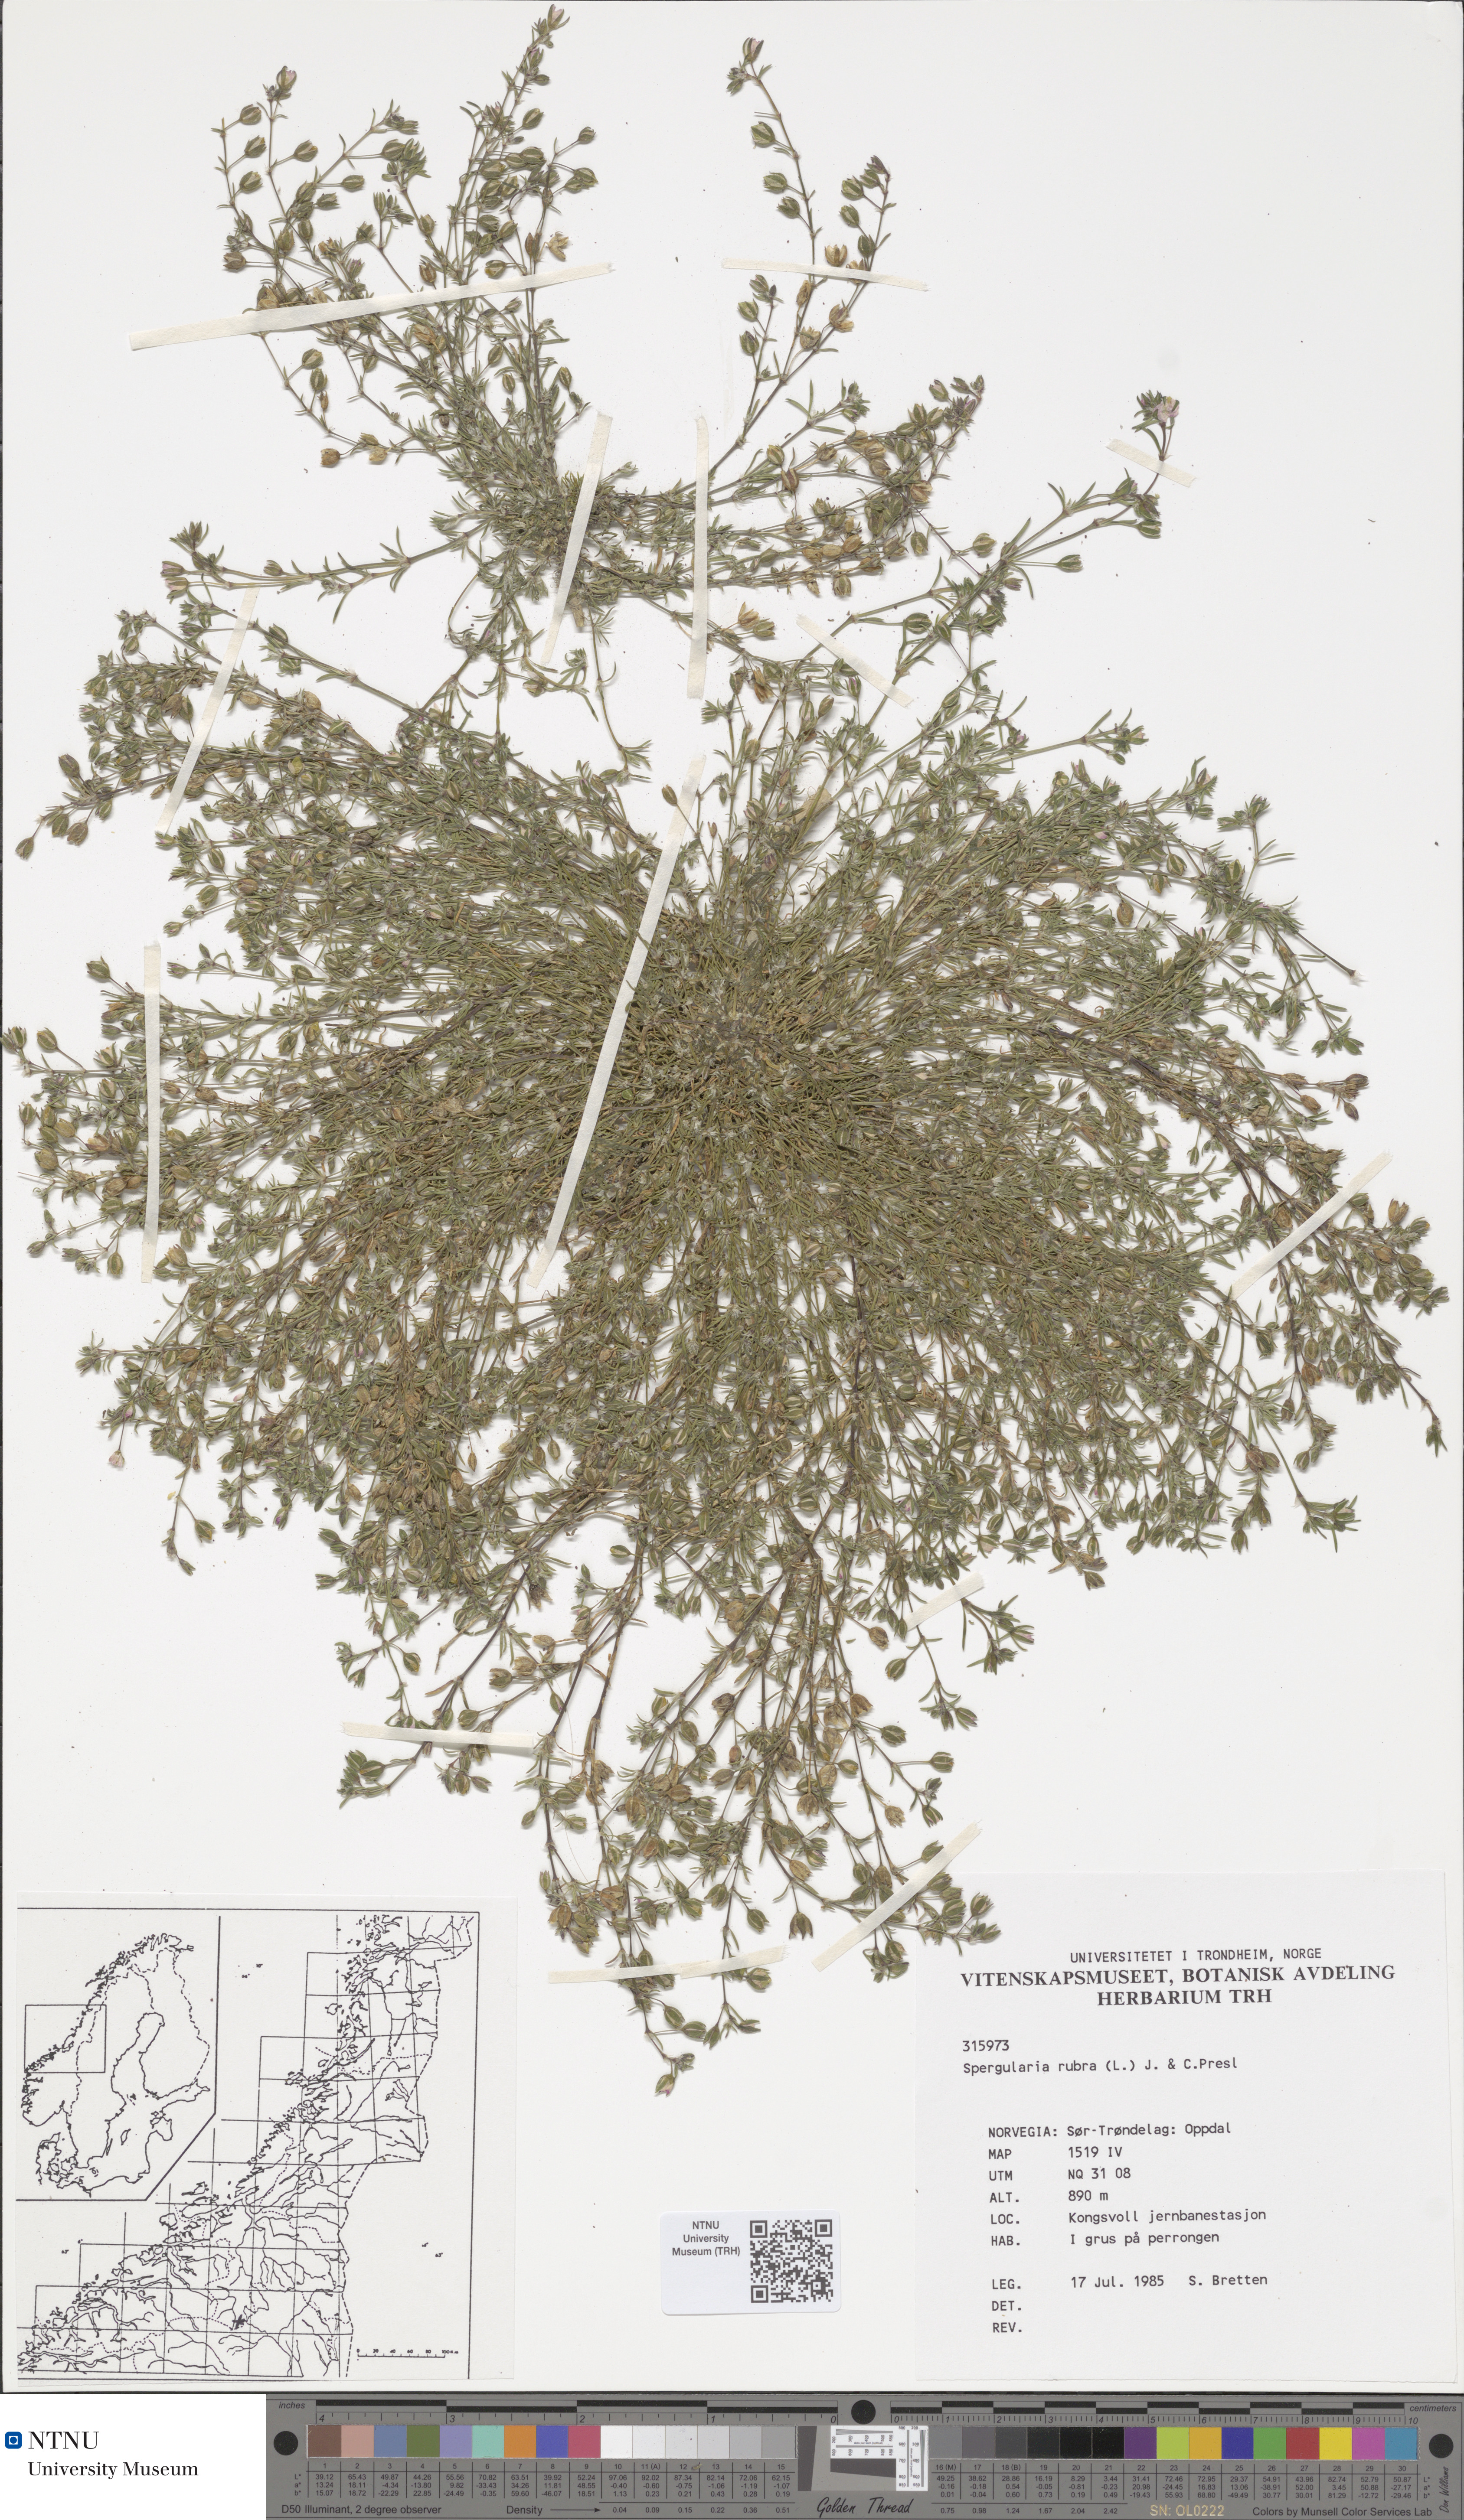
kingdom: Plantae
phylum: Tracheophyta
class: Magnoliopsida
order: Caryophyllales
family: Caryophyllaceae
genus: Spergularia
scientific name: Spergularia rubra
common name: Red sand-spurrey
